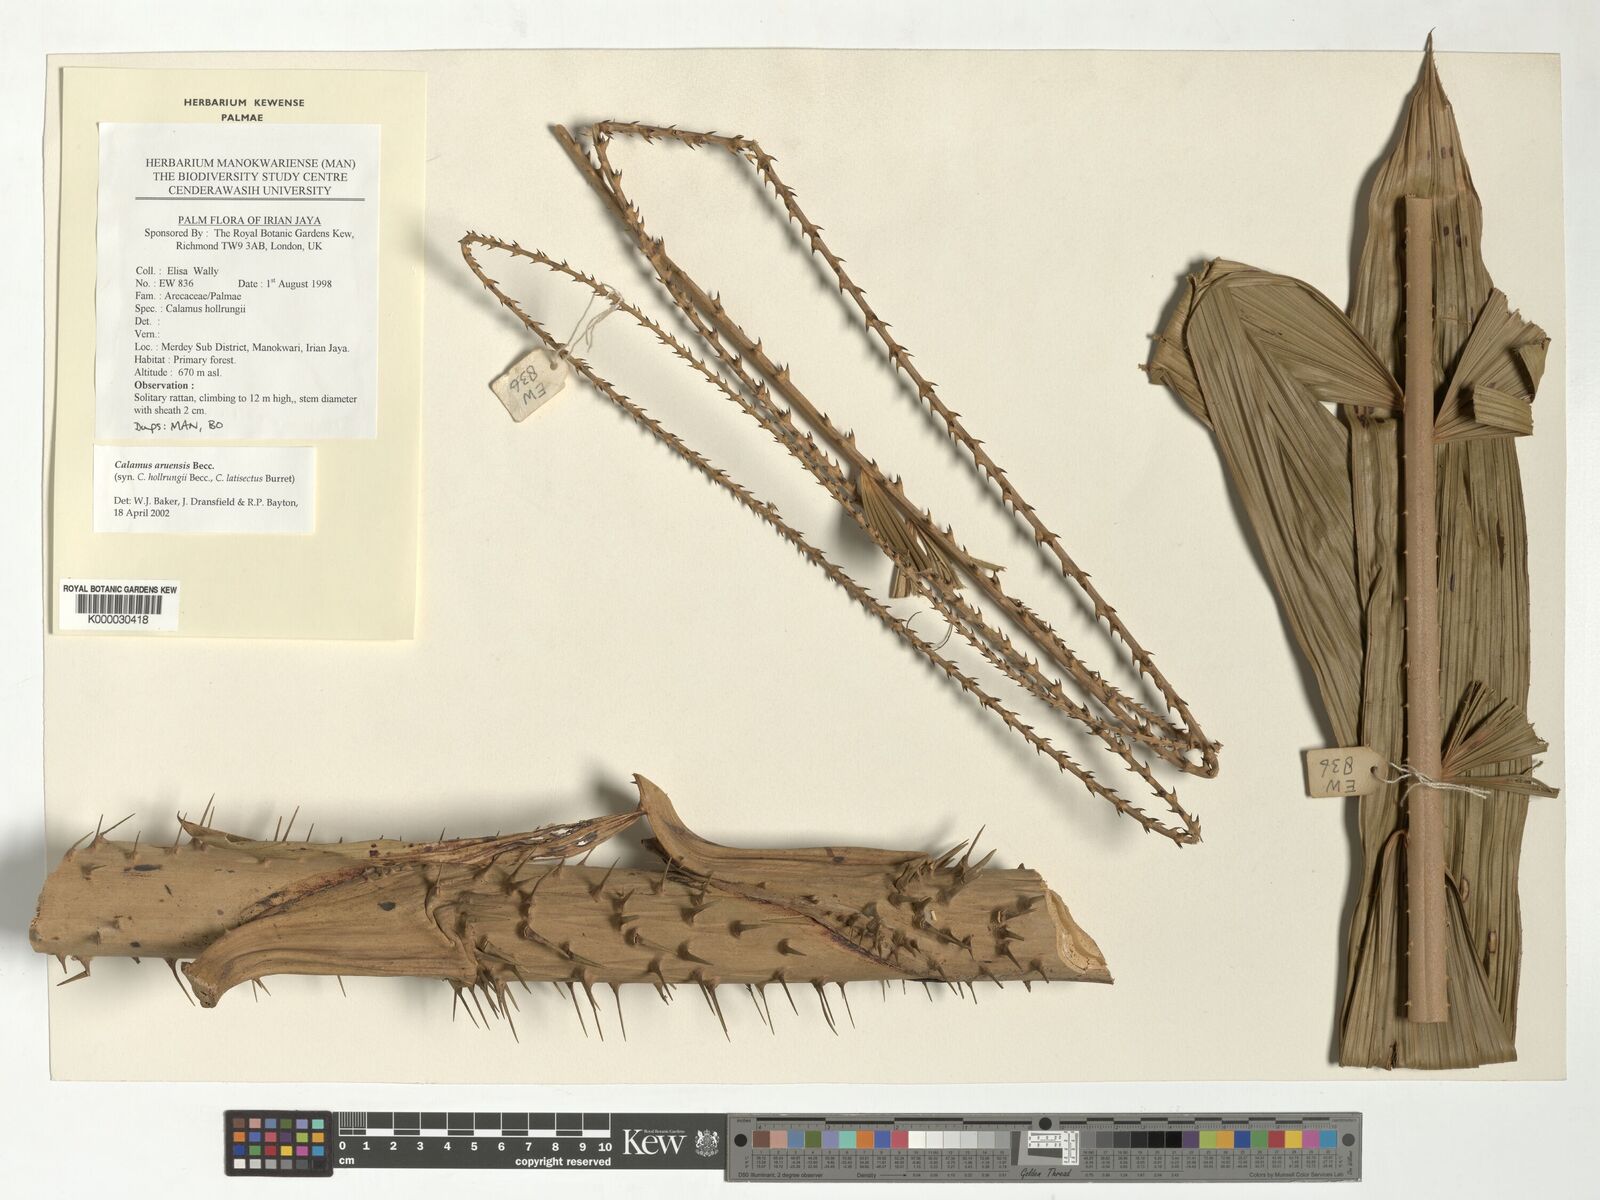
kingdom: Plantae
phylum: Tracheophyta
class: Liliopsida
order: Arecales
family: Arecaceae
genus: Calamus
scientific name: Calamus aruensis
